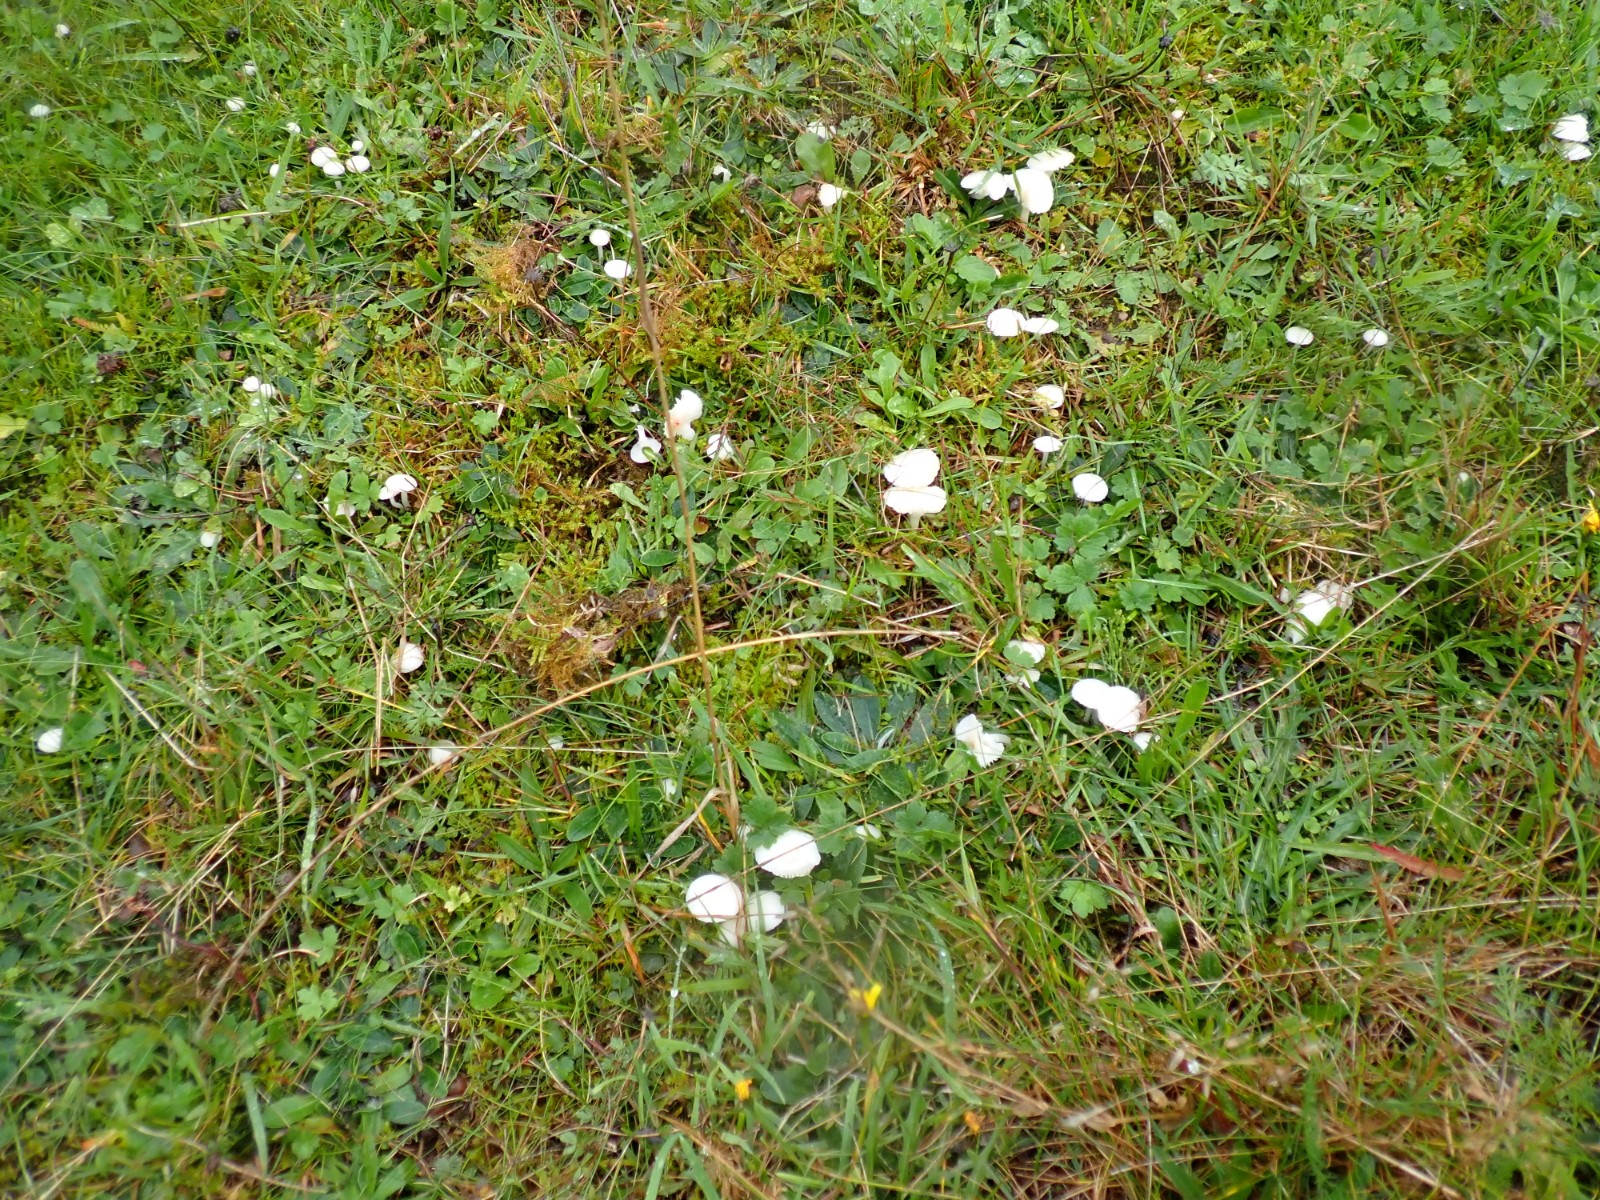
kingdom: Fungi
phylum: Basidiomycota
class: Agaricomycetes
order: Agaricales
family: Hygrophoraceae
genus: Cuphophyllus
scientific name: Cuphophyllus virgineus
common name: snehvid vokshat
